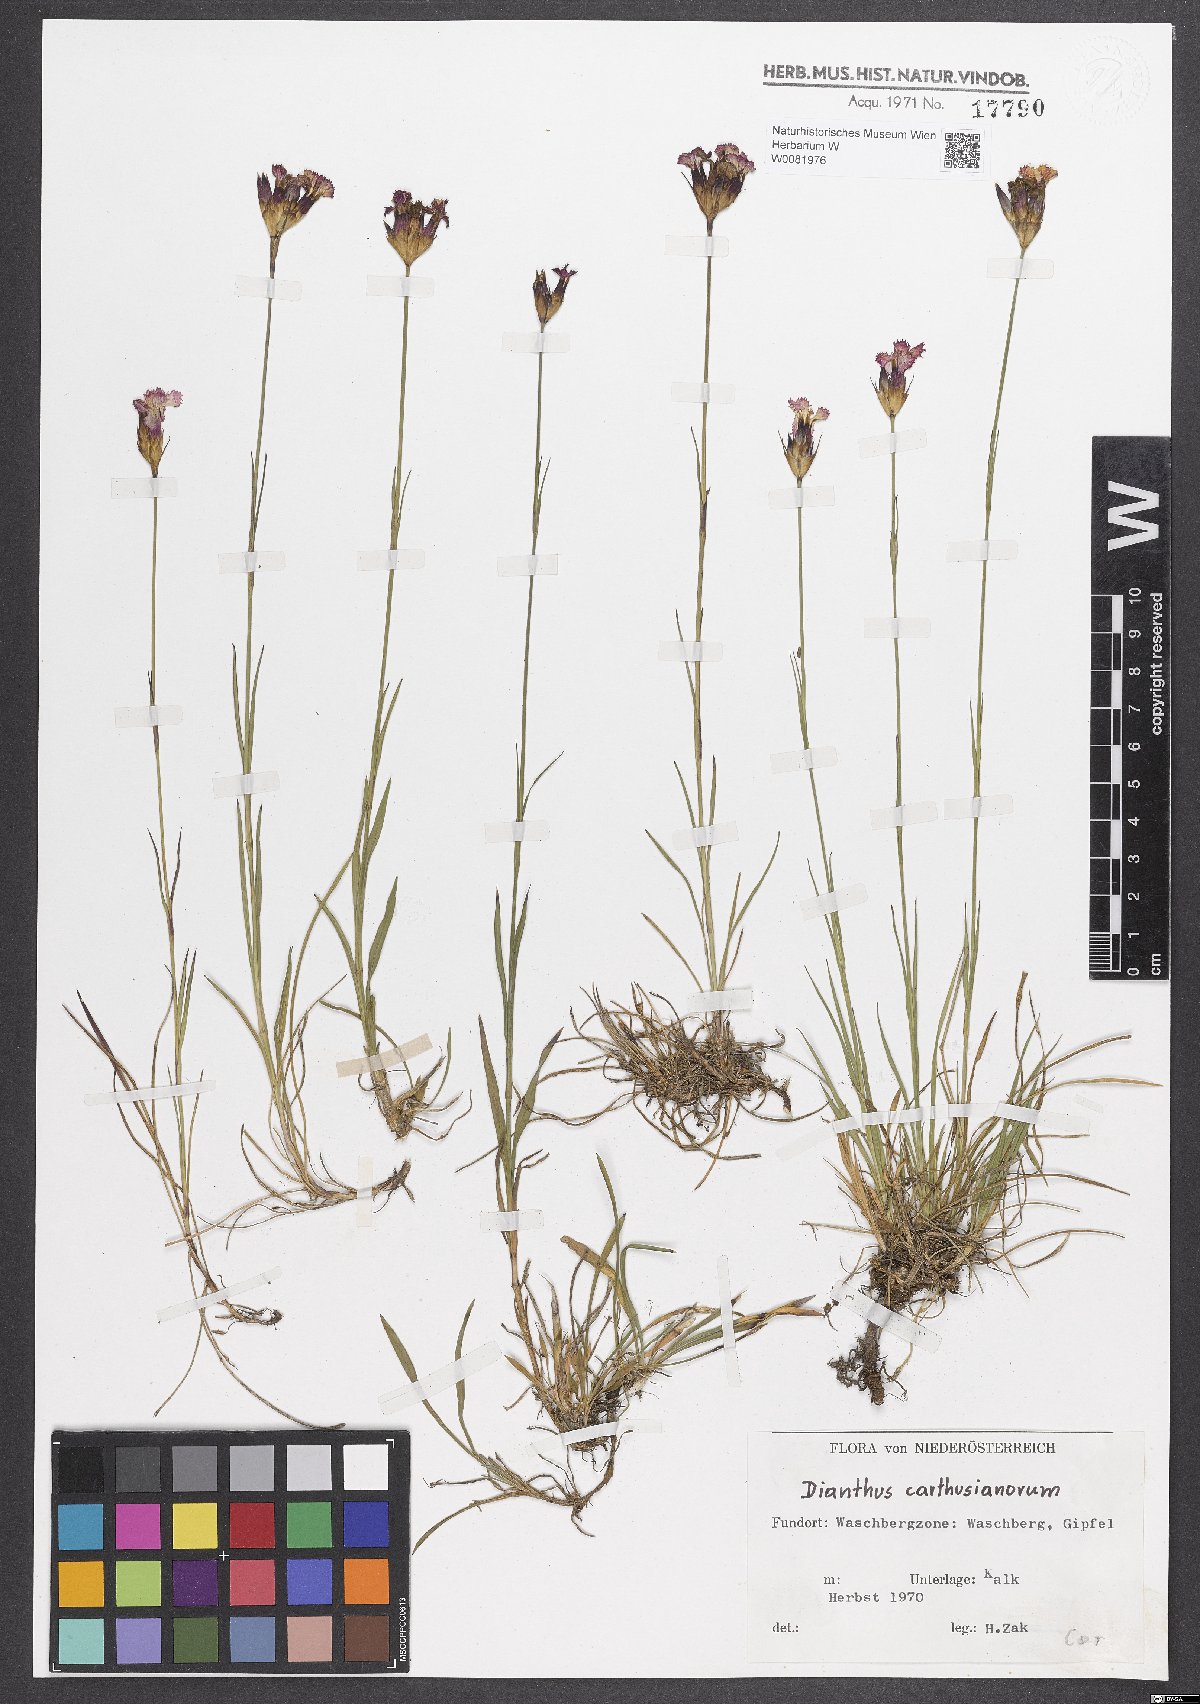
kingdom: Plantae
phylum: Tracheophyta
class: Magnoliopsida
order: Caryophyllales
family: Caryophyllaceae
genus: Dianthus
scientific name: Dianthus carthusianorum
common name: Carthusian pink
